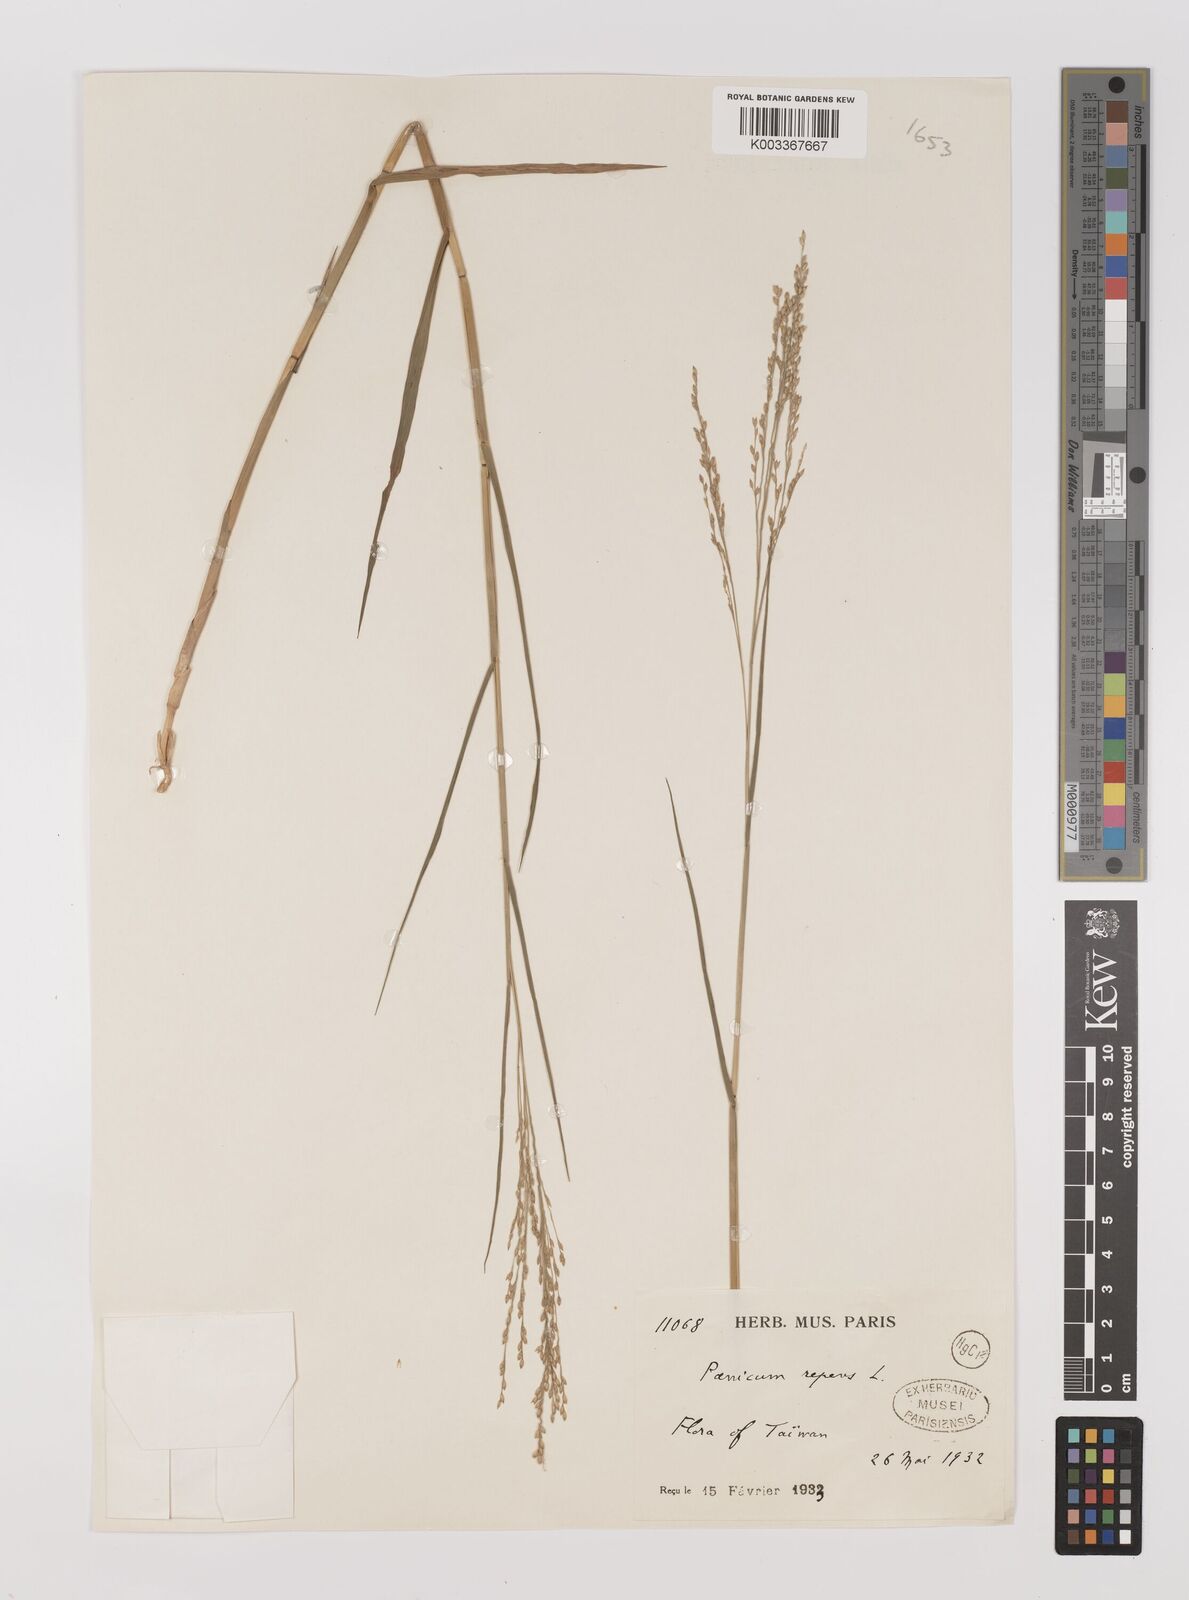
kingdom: Plantae
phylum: Tracheophyta
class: Liliopsida
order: Poales
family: Poaceae
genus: Panicum
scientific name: Panicum repens
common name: Torpedo grass
